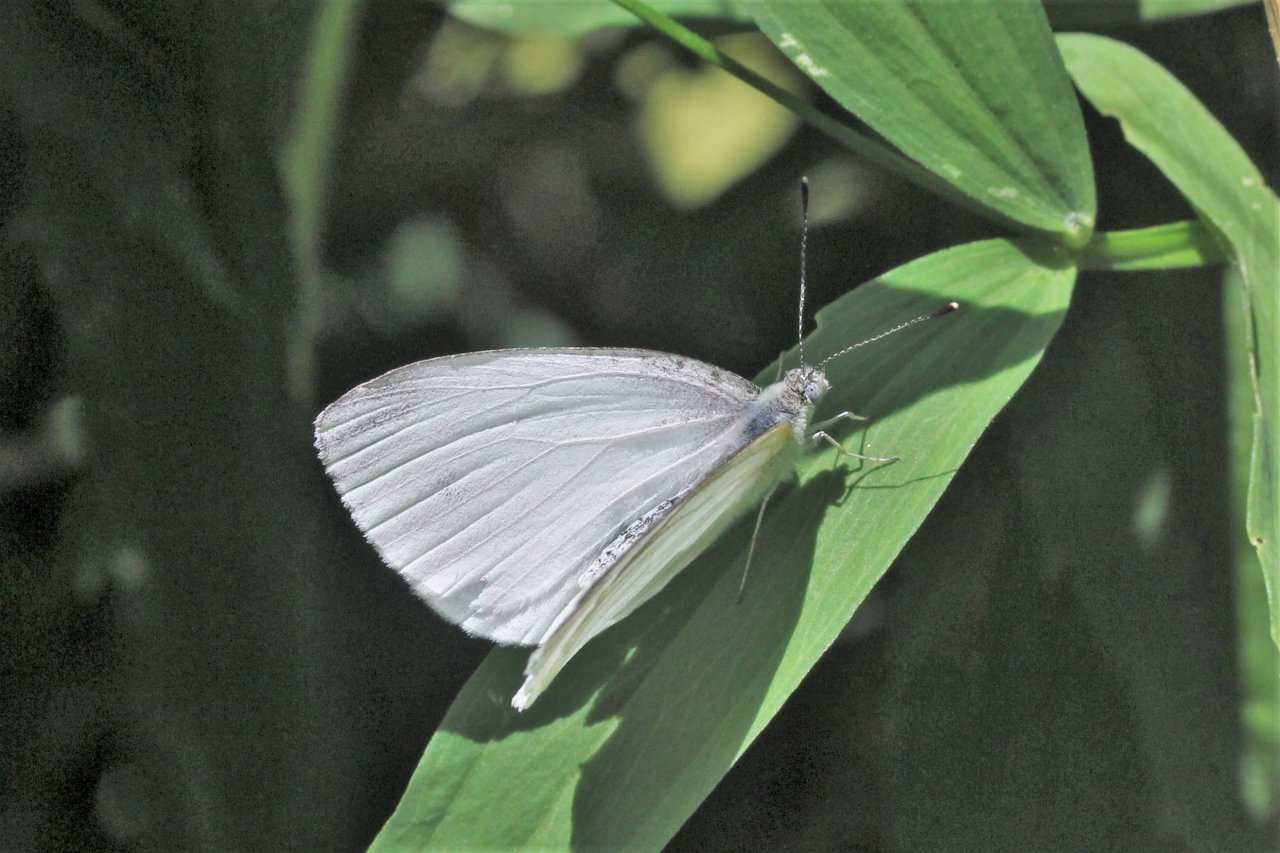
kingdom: Animalia
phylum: Arthropoda
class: Insecta
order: Lepidoptera
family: Pieridae
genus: Pieris
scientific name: Pieris oleracea
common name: Mustard White
